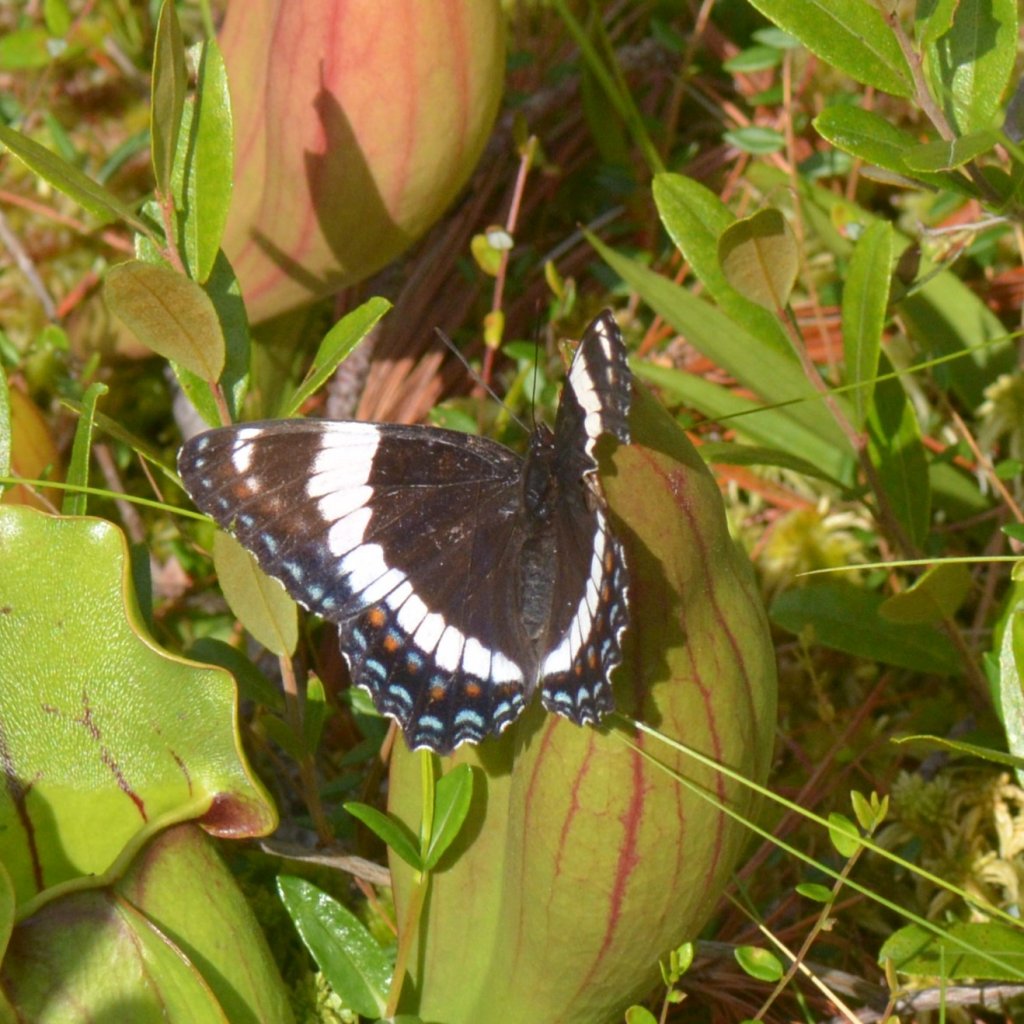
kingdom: Animalia
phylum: Arthropoda
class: Insecta
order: Lepidoptera
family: Nymphalidae
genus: Limenitis
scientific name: Limenitis arthemis
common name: Red-spotted Admiral
